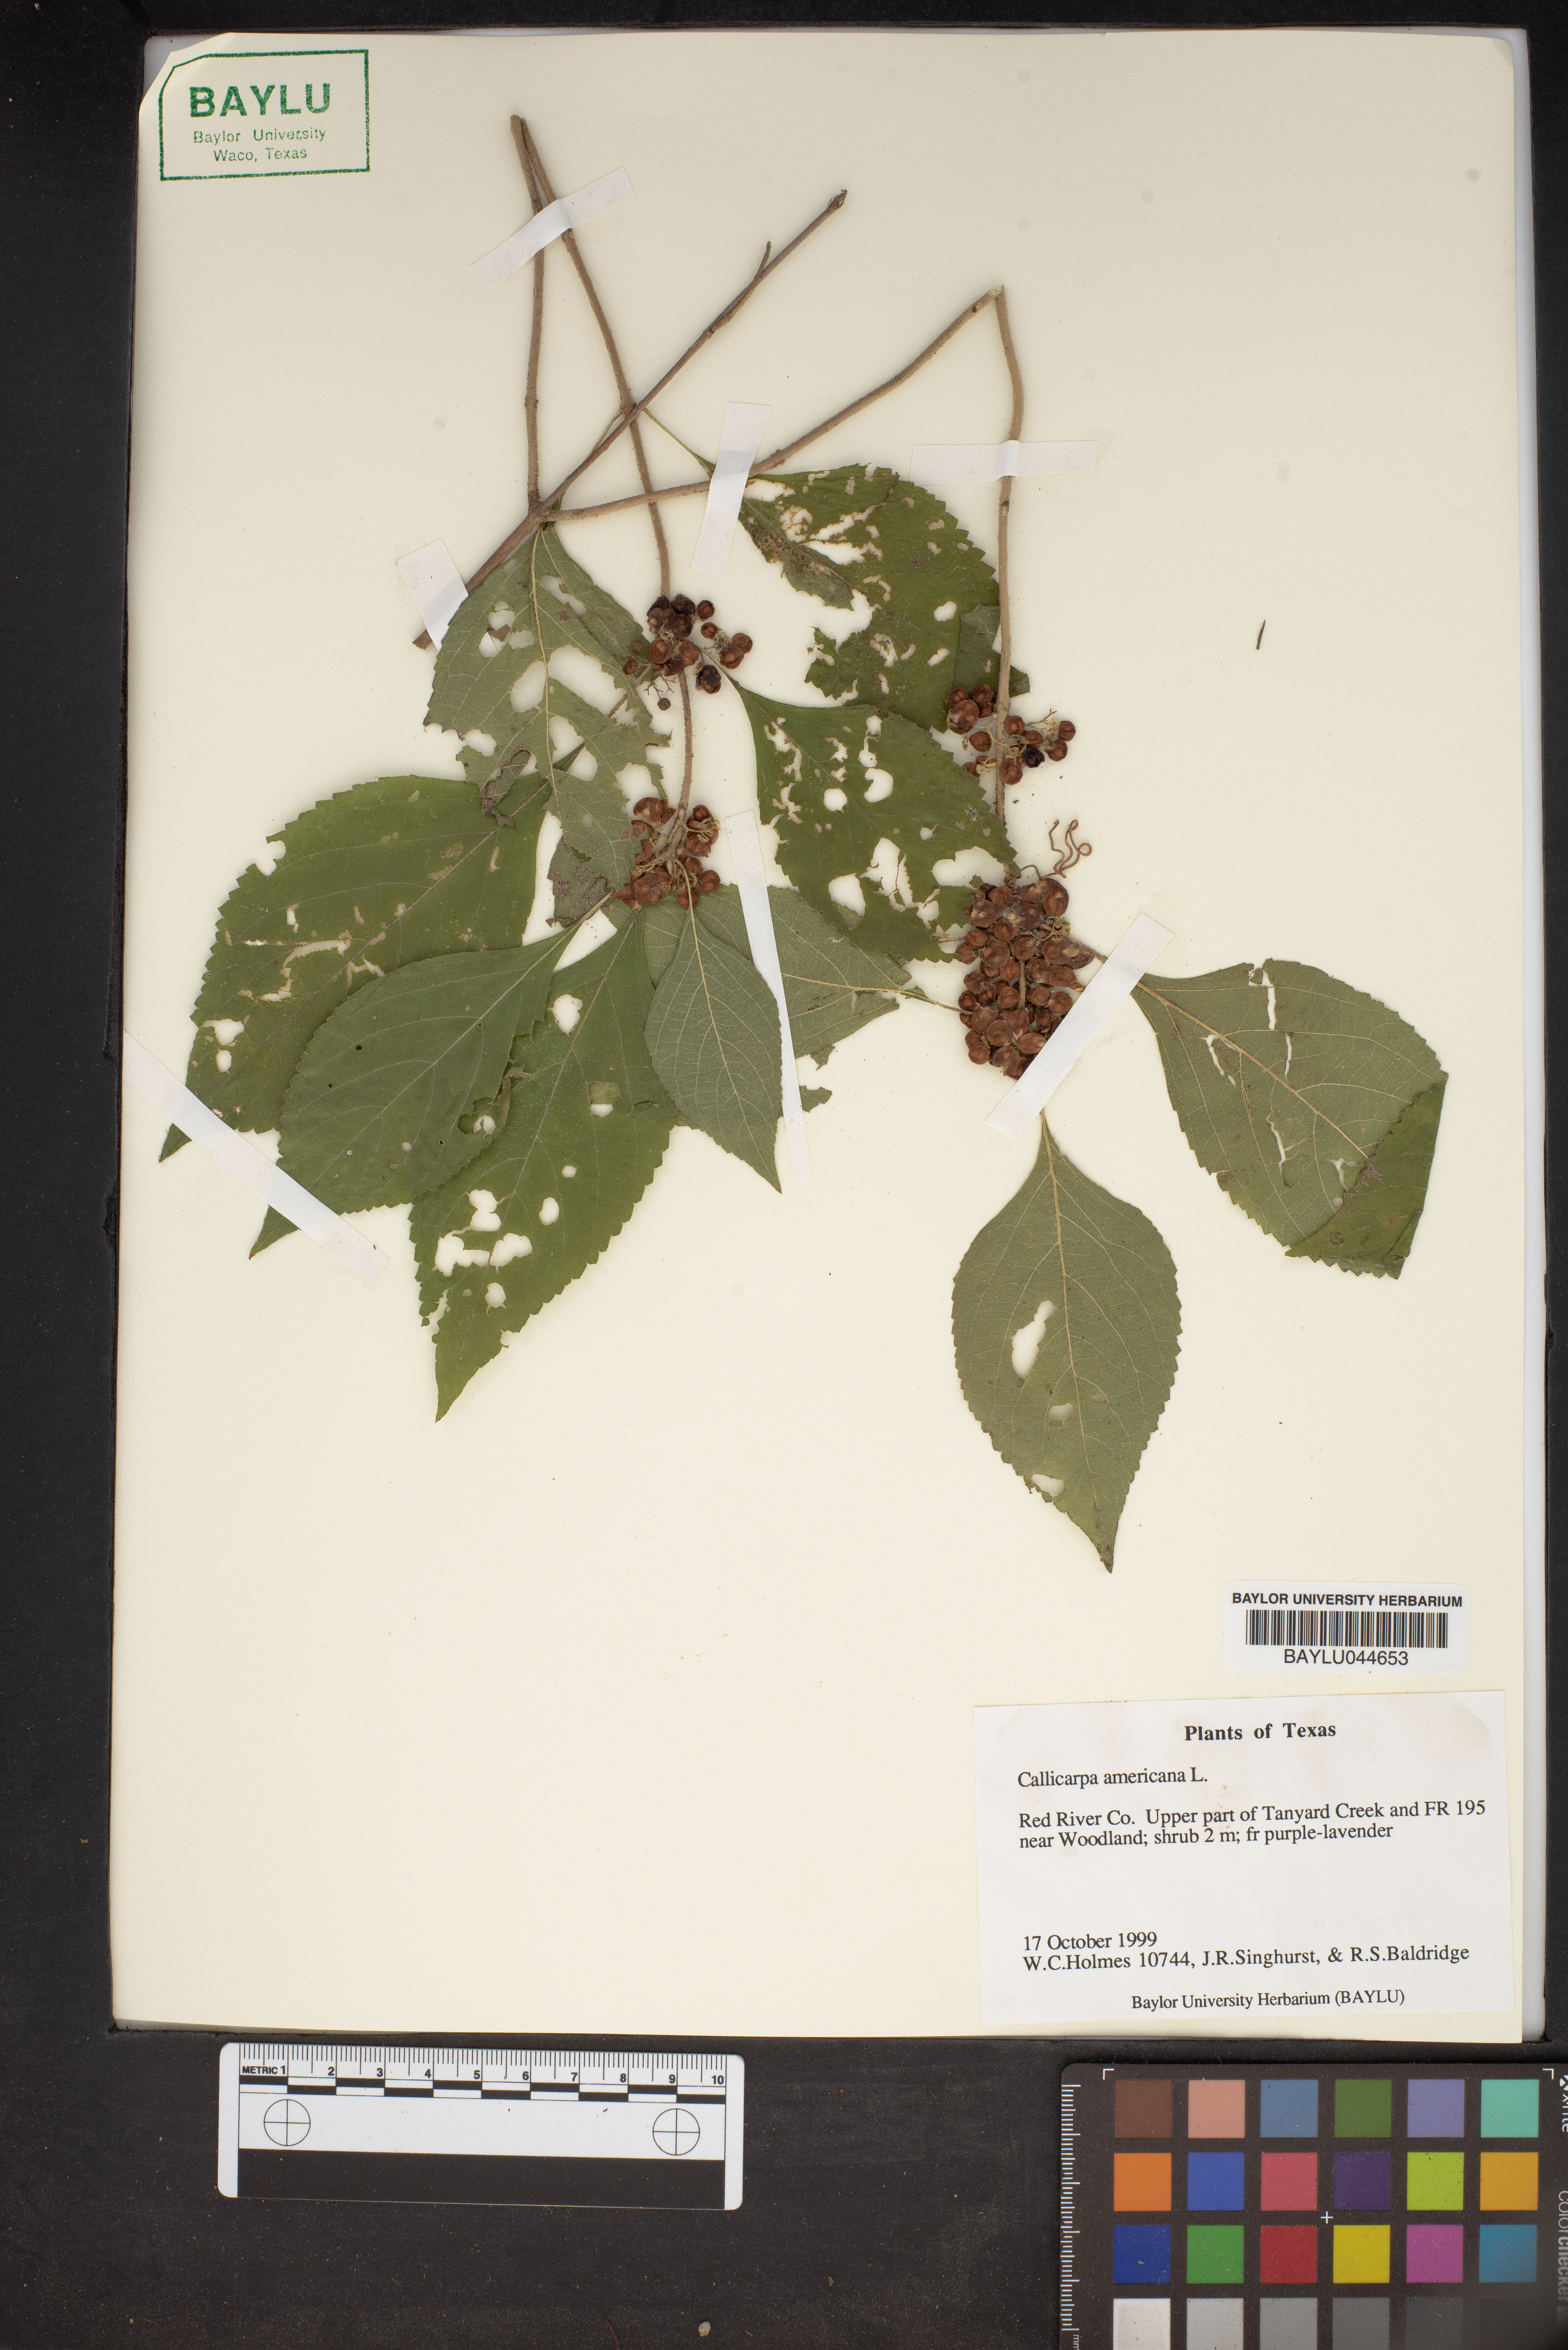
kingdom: Plantae
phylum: Tracheophyta
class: Magnoliopsida
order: Lamiales
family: Lamiaceae
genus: Callicarpa
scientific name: Callicarpa americana
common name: American beautyberry
